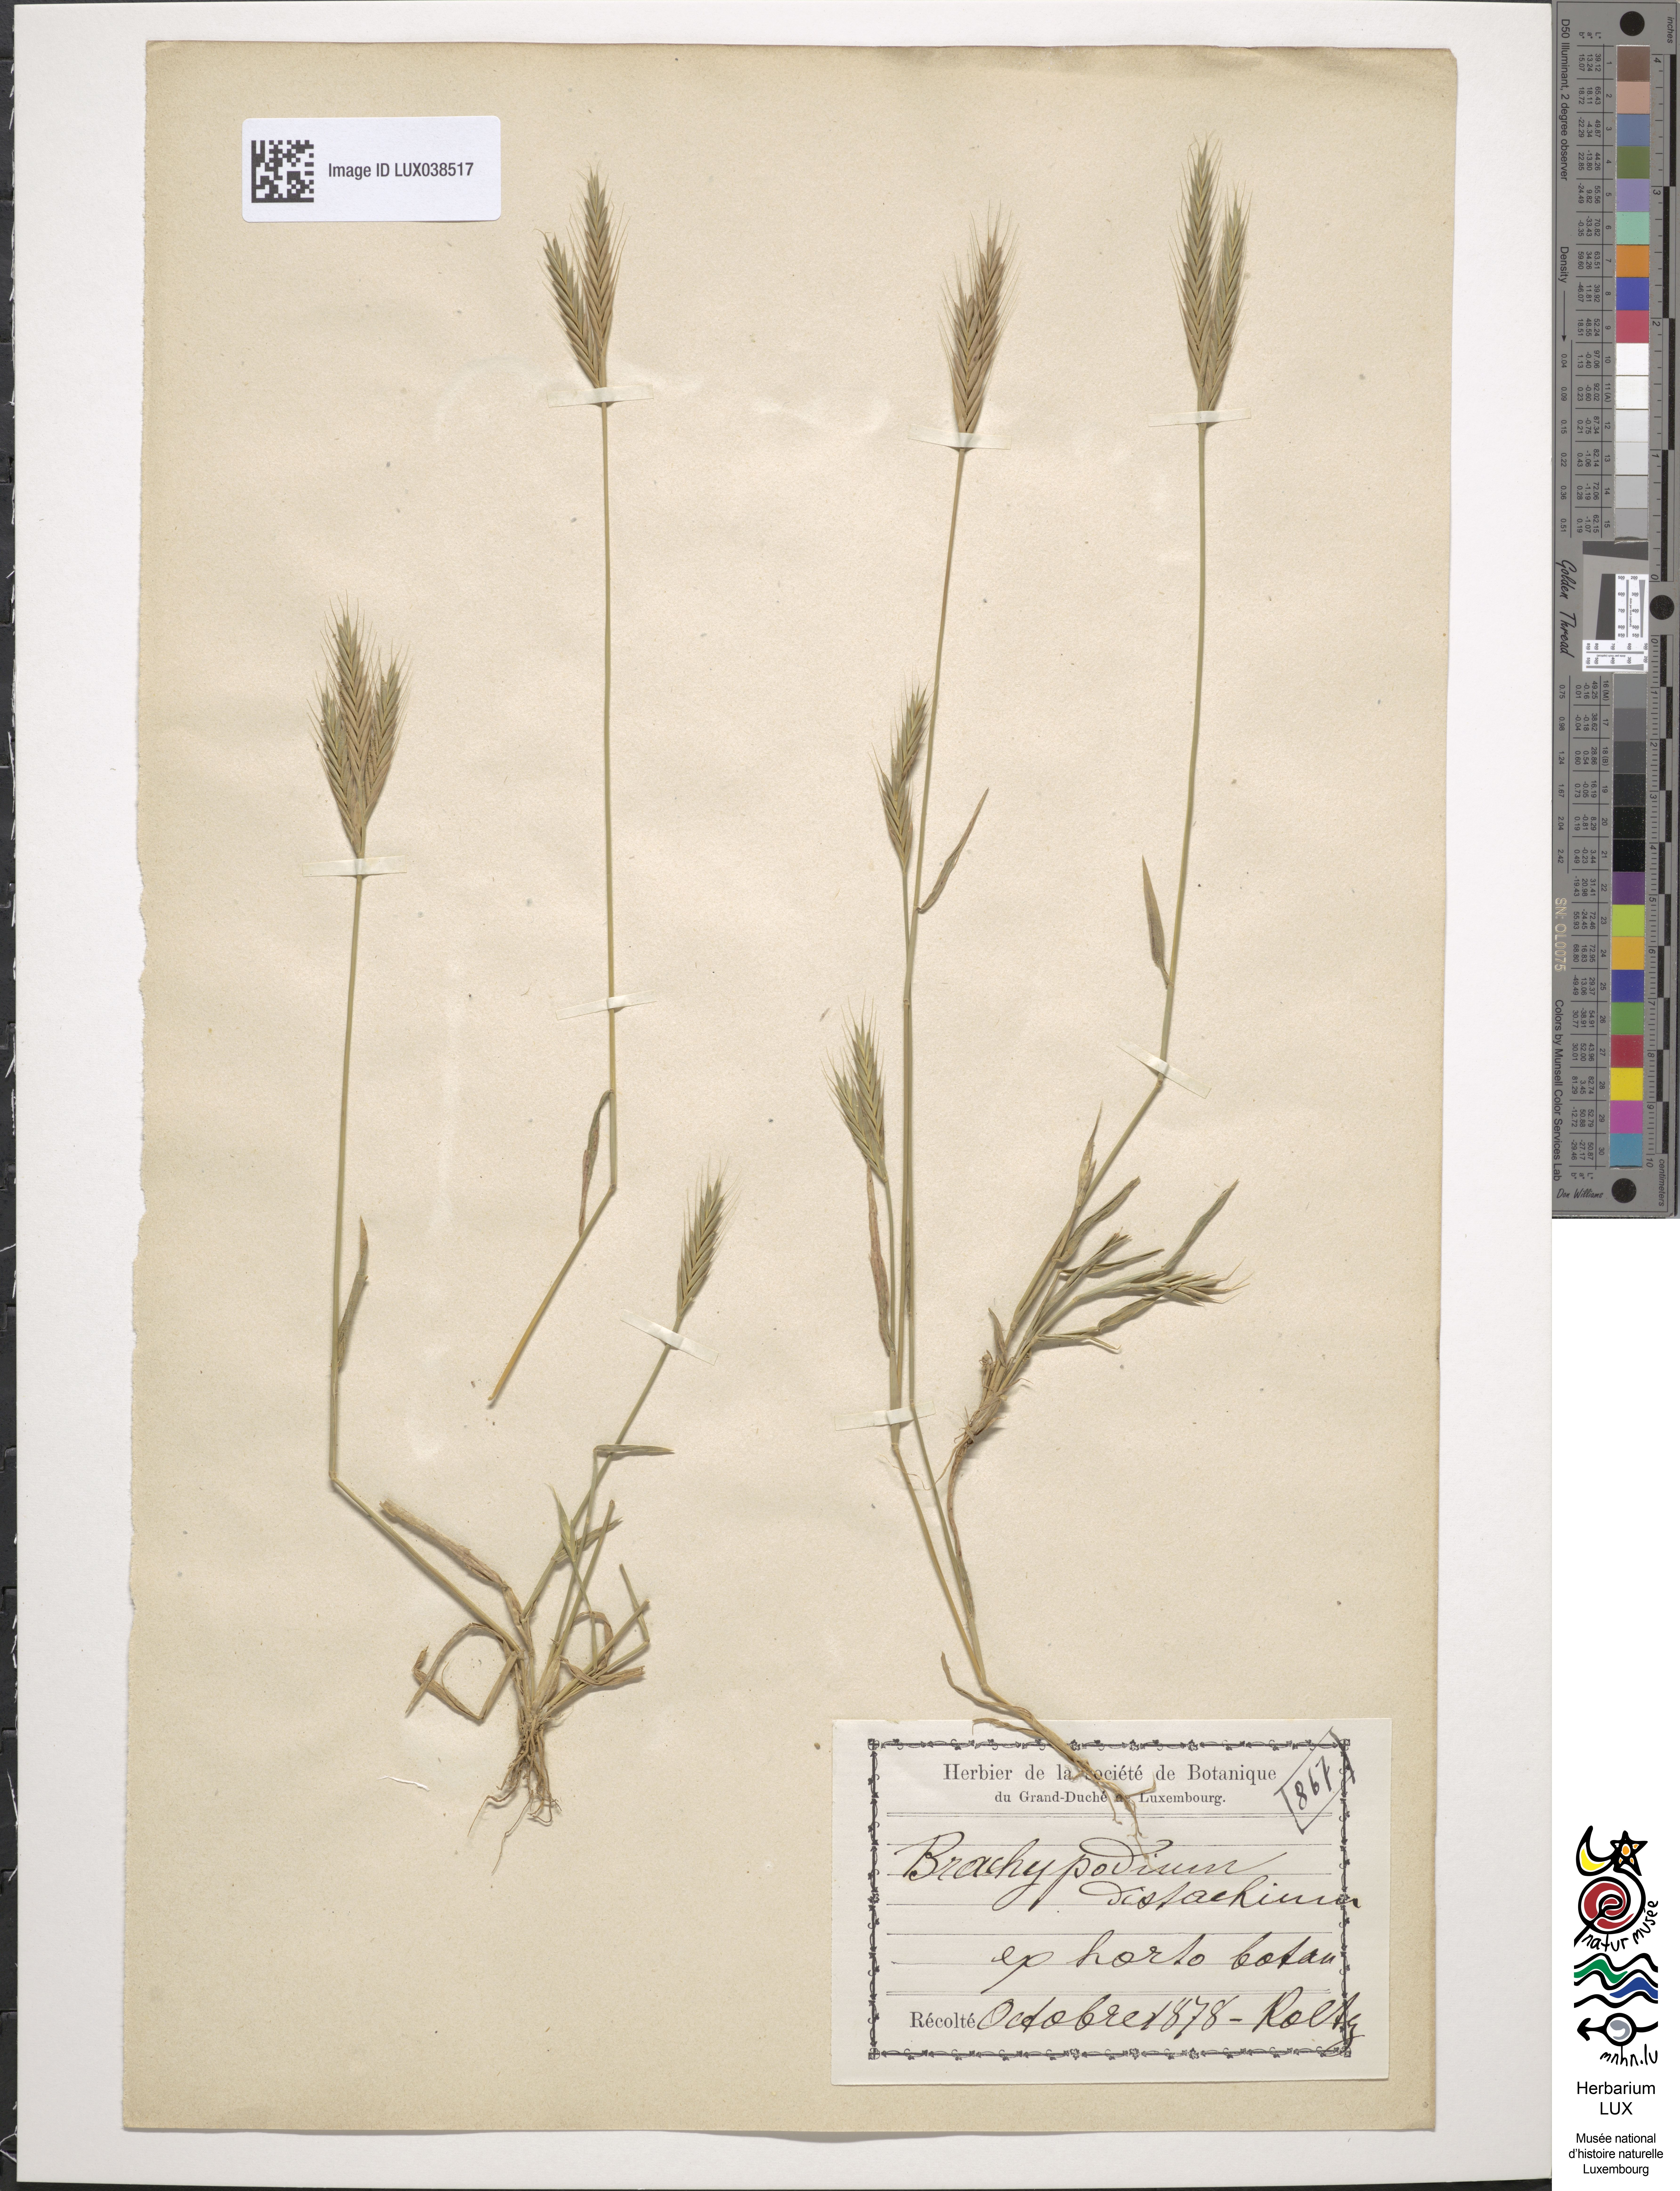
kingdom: Plantae
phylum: Tracheophyta
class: Liliopsida
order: Poales
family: Poaceae
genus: Brachypodium
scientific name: Brachypodium distachyon
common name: Stiff brome
